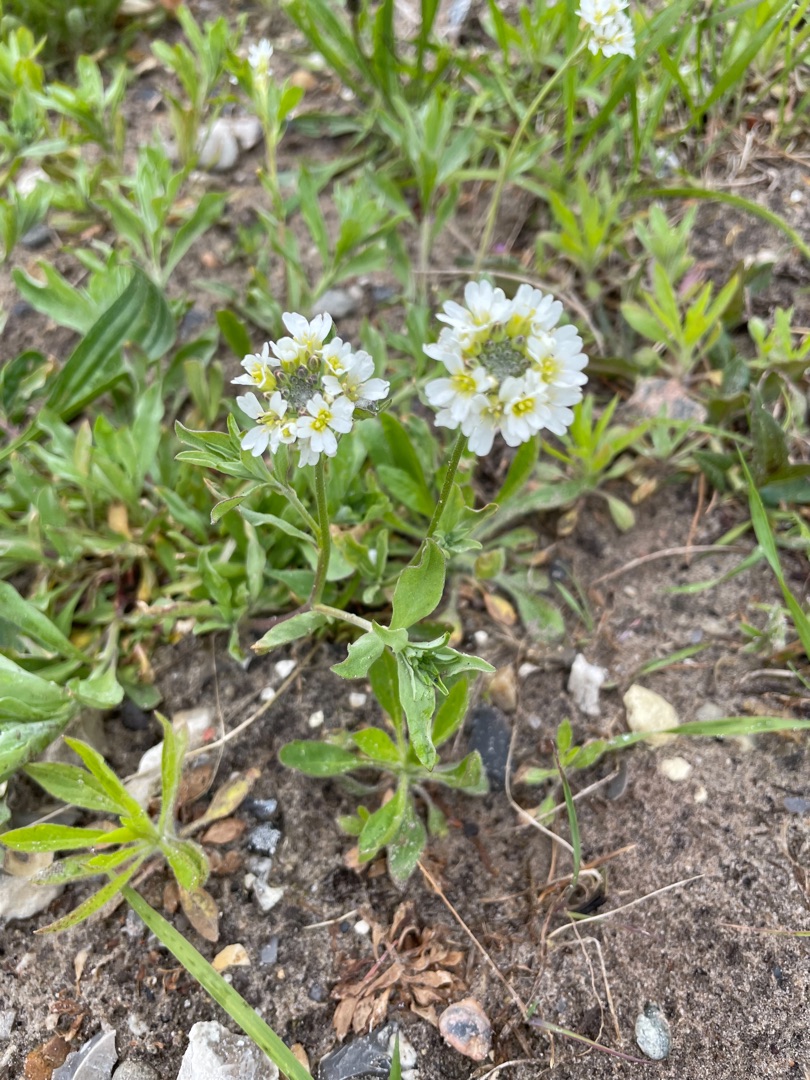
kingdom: Plantae
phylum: Tracheophyta
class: Magnoliopsida
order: Brassicales
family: Brassicaceae
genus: Berteroa
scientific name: Berteroa incana
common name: Kløvplade
